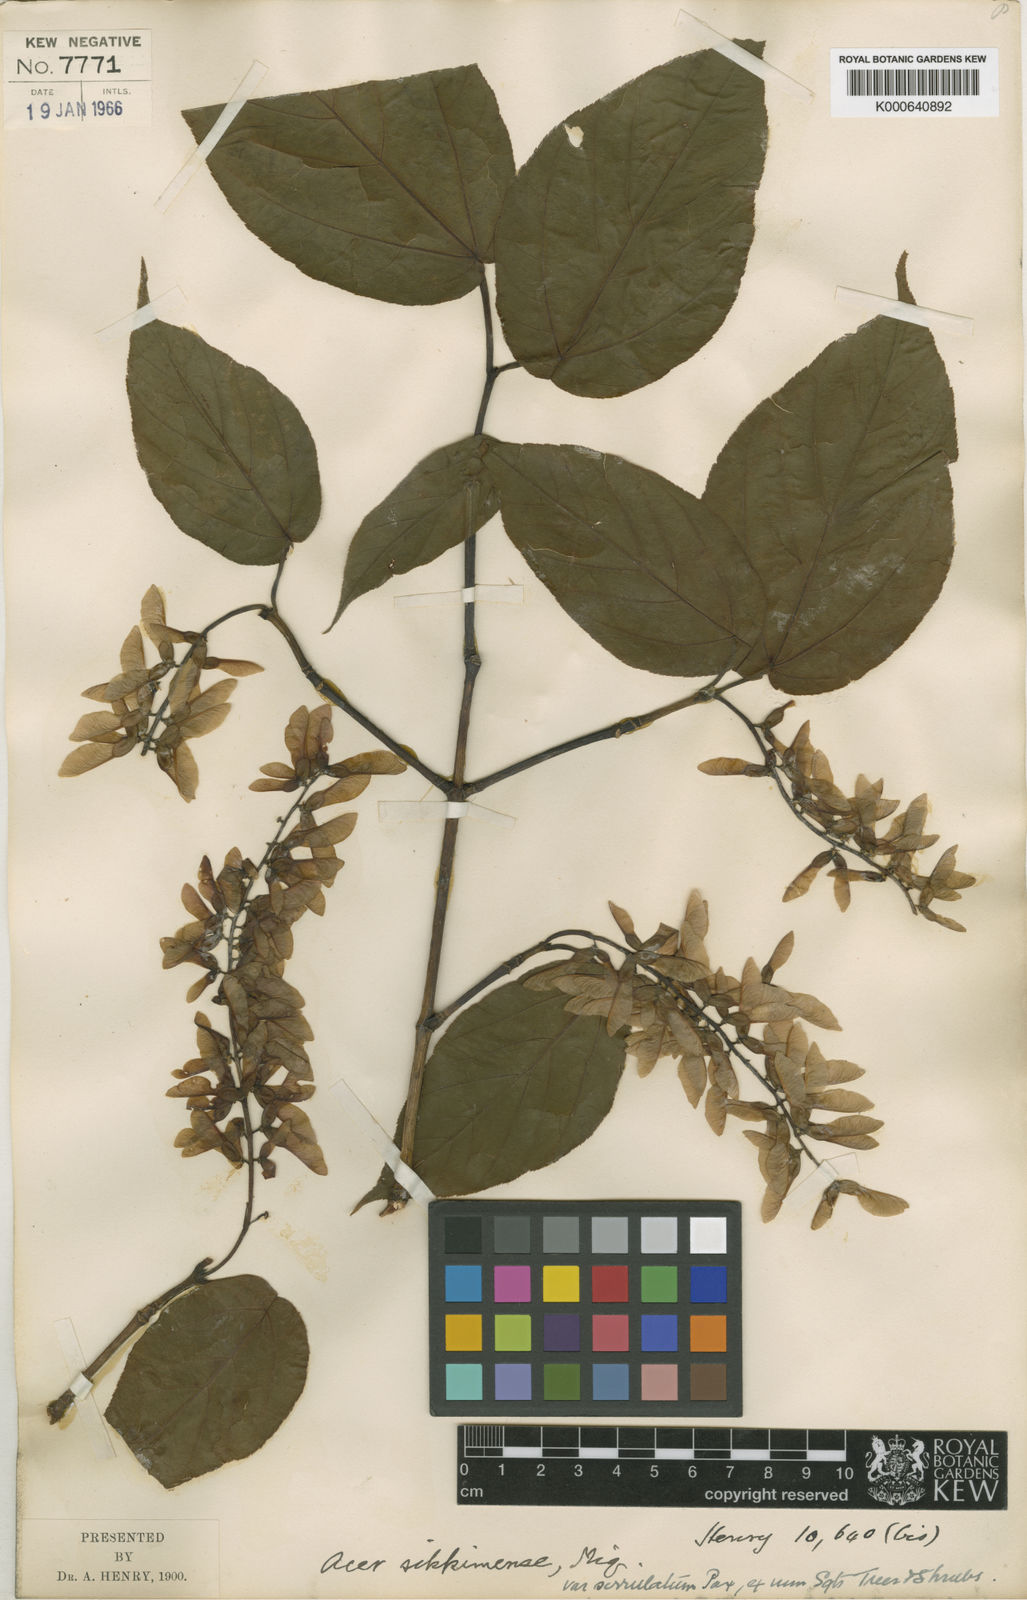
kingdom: Plantae
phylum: Tracheophyta
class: Magnoliopsida
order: Sapindales
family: Sapindaceae
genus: Acer
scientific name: Acer sikkimense
